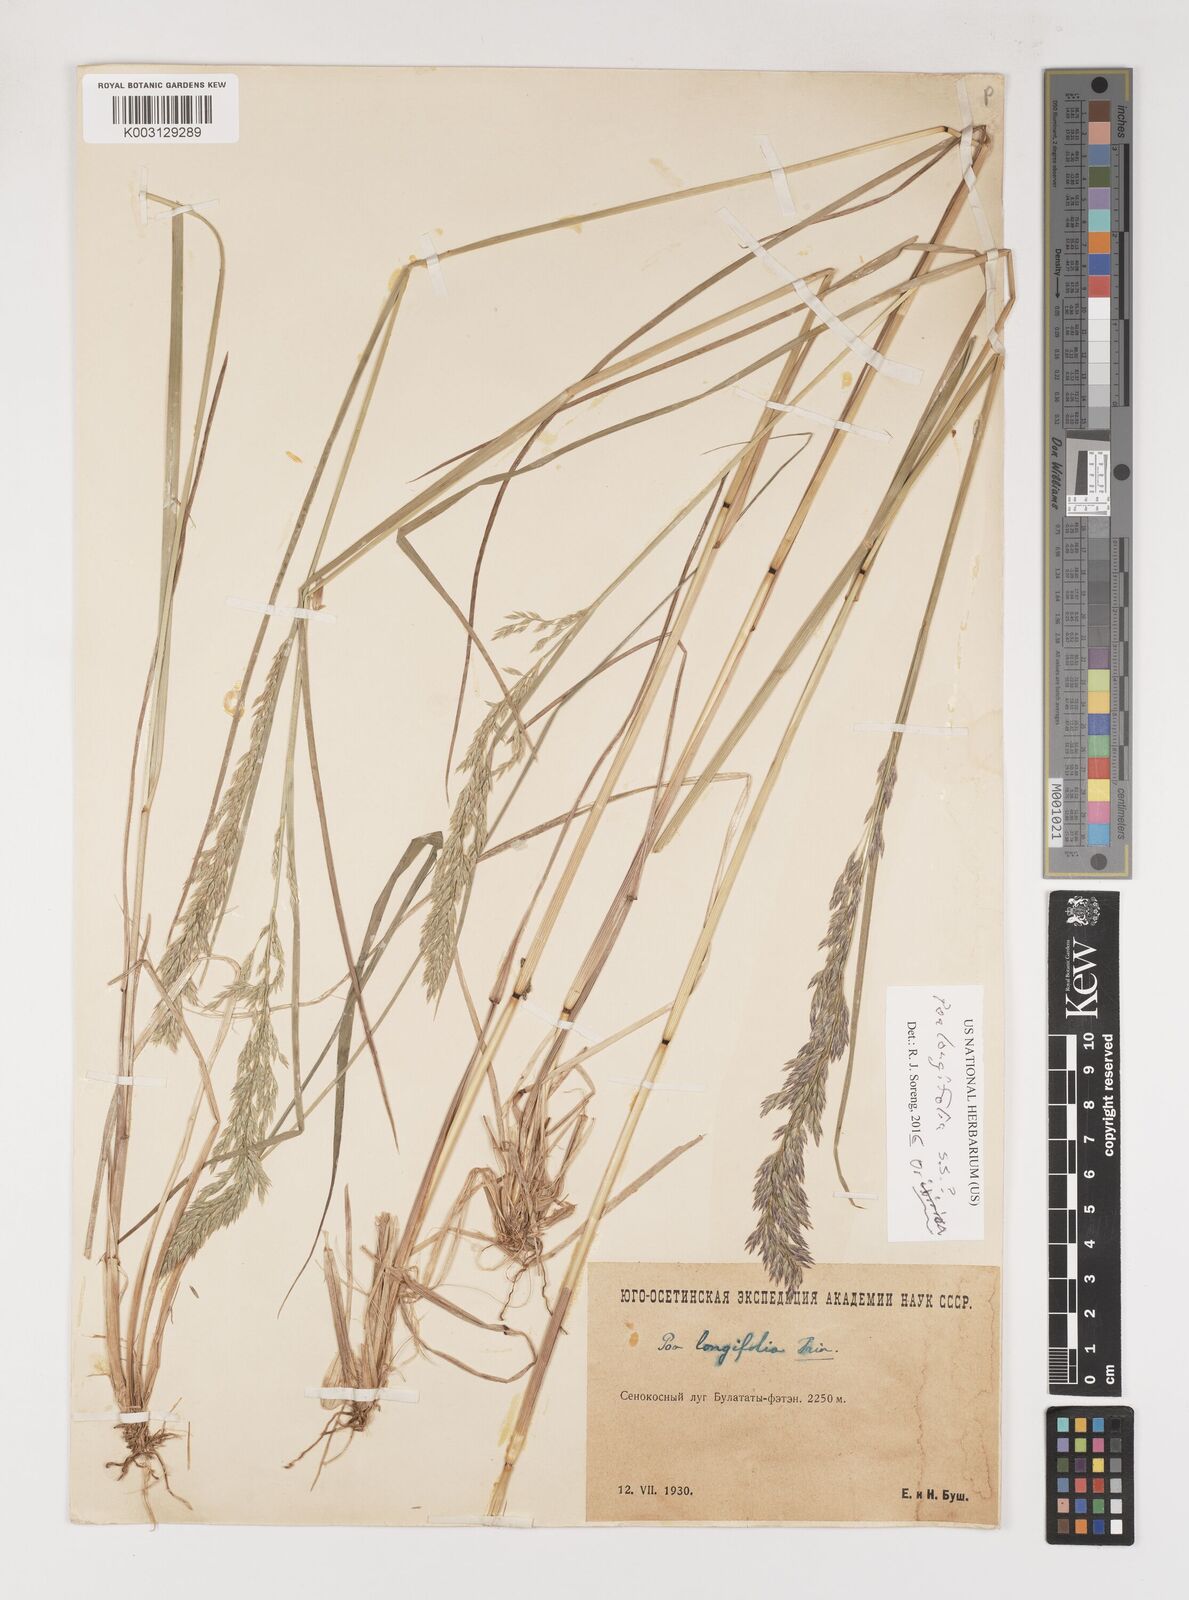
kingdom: Plantae
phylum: Tracheophyta
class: Liliopsida
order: Poales
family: Poaceae
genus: Poa
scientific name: Poa longifolia
